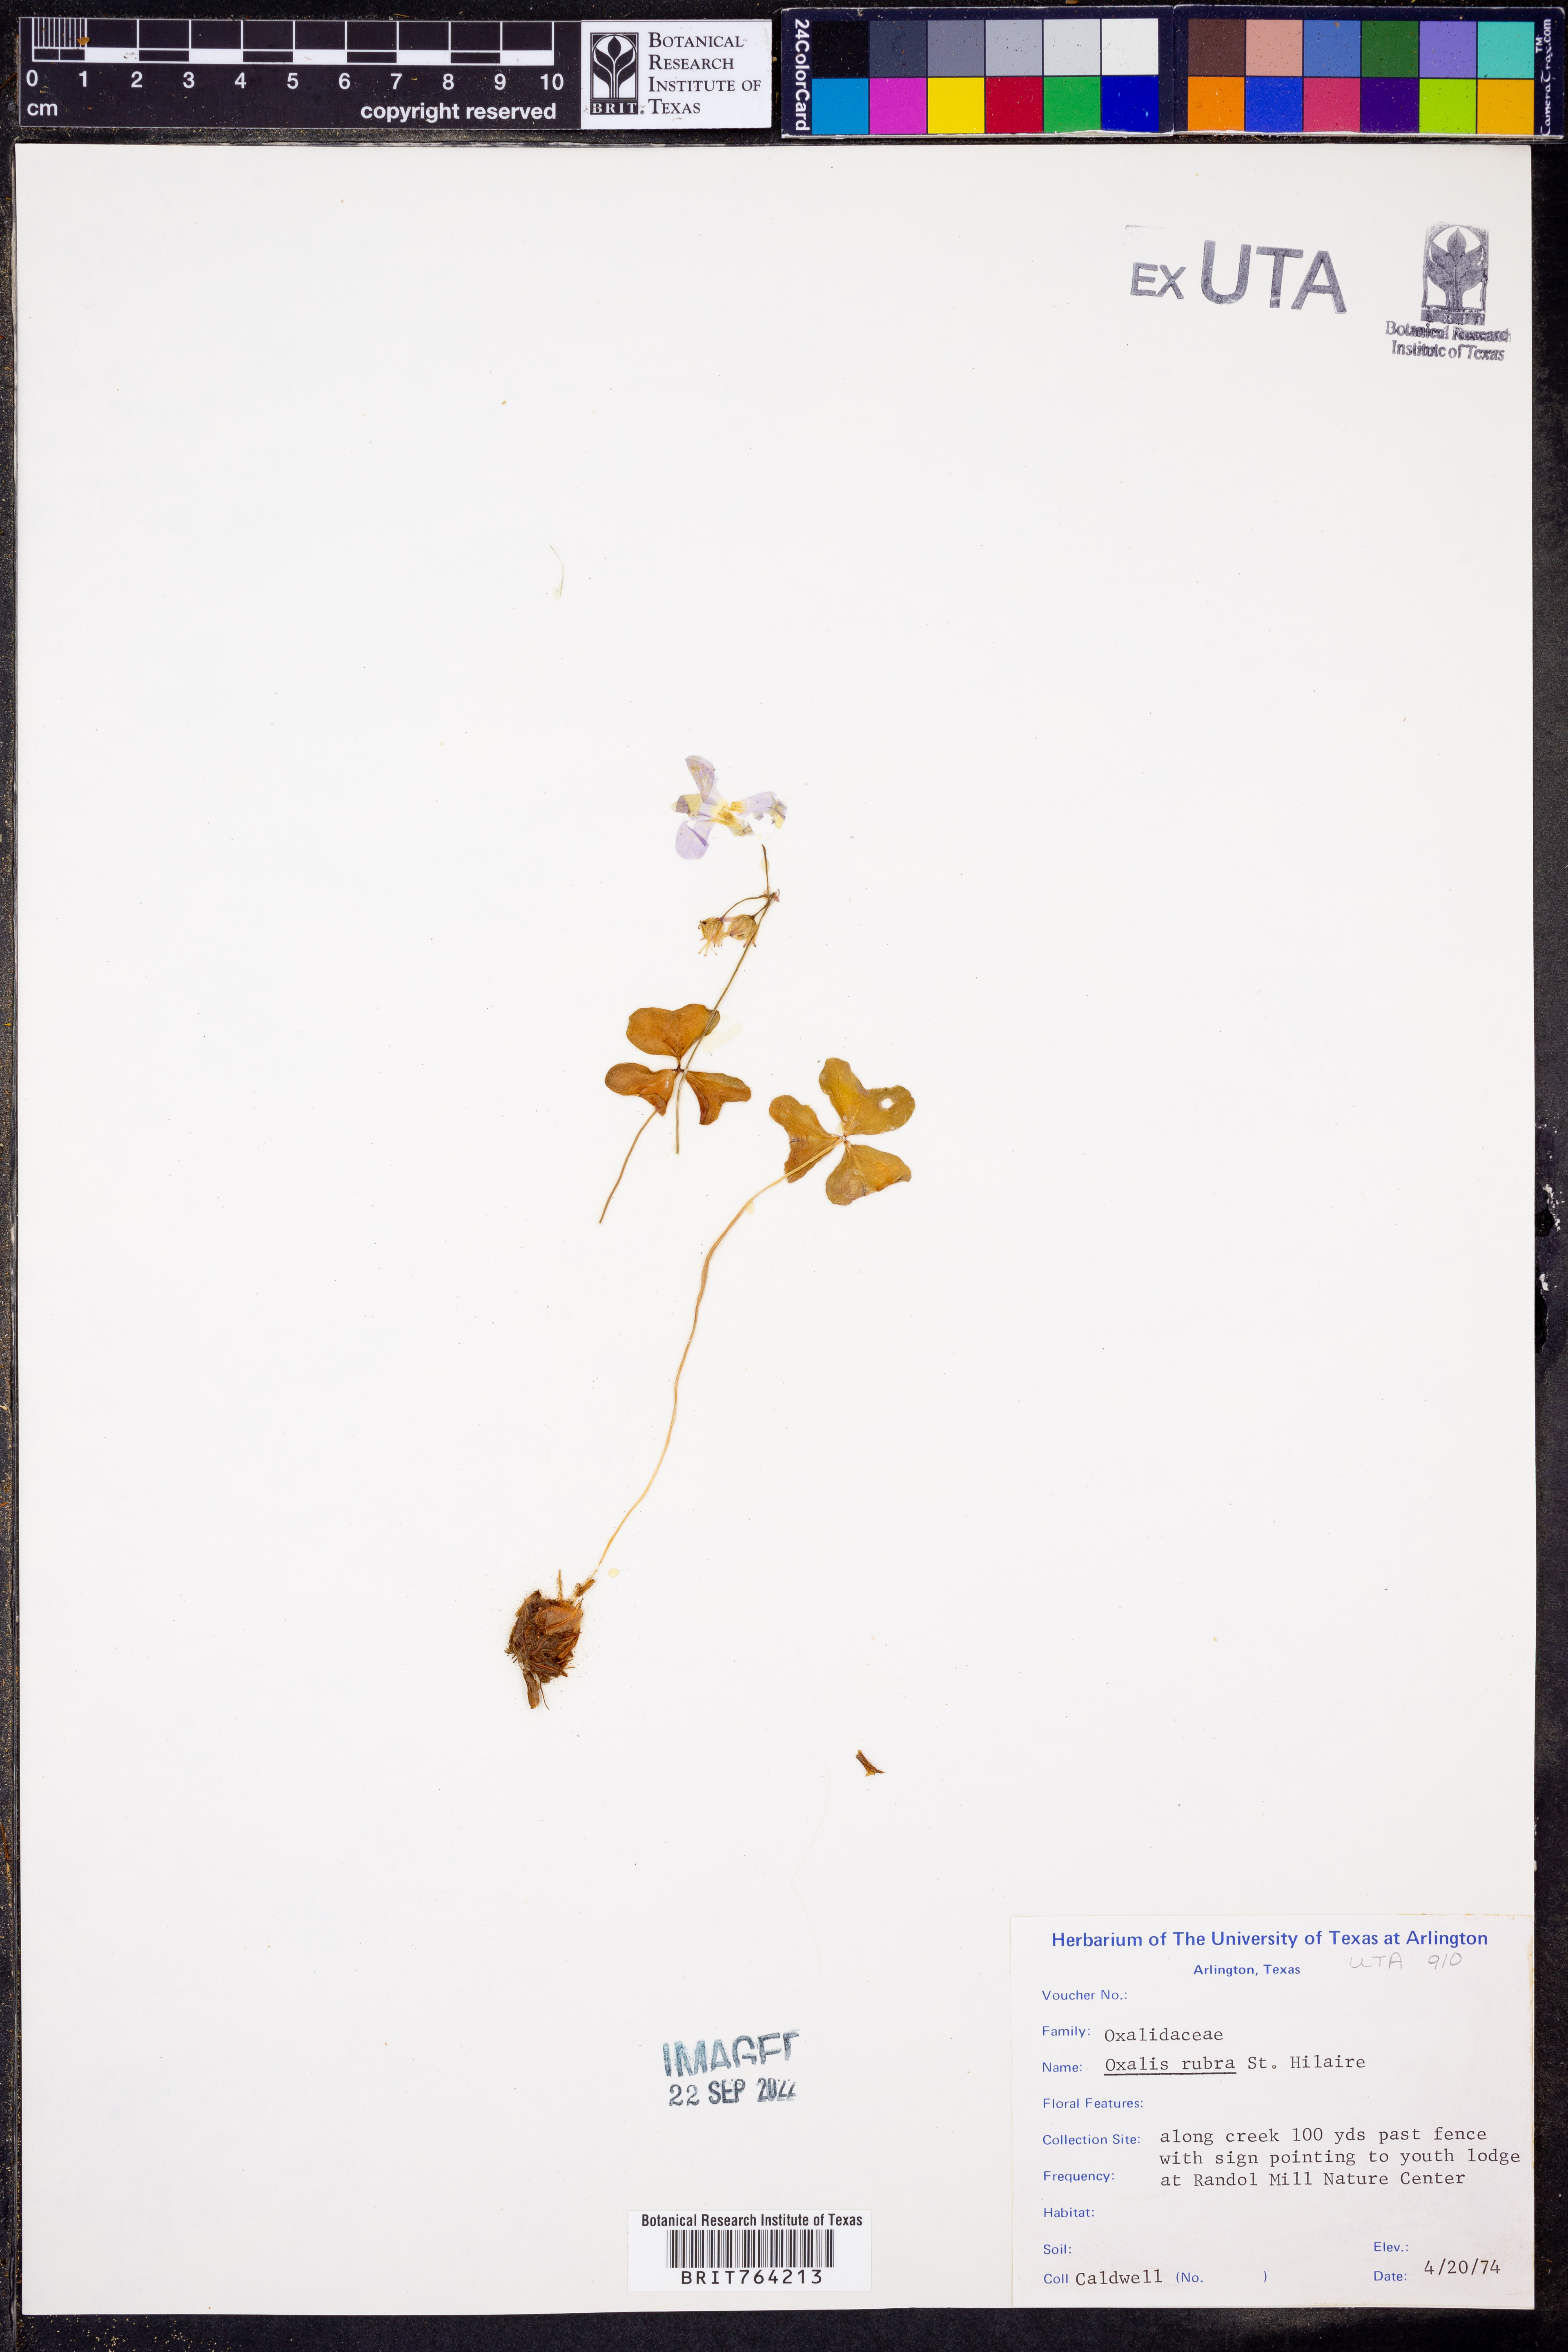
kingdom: Plantae
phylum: Tracheophyta
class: Magnoliopsida
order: Oxalidales
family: Oxalidaceae
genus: Oxalis
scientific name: Oxalis articulata
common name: Pink-sorrel
